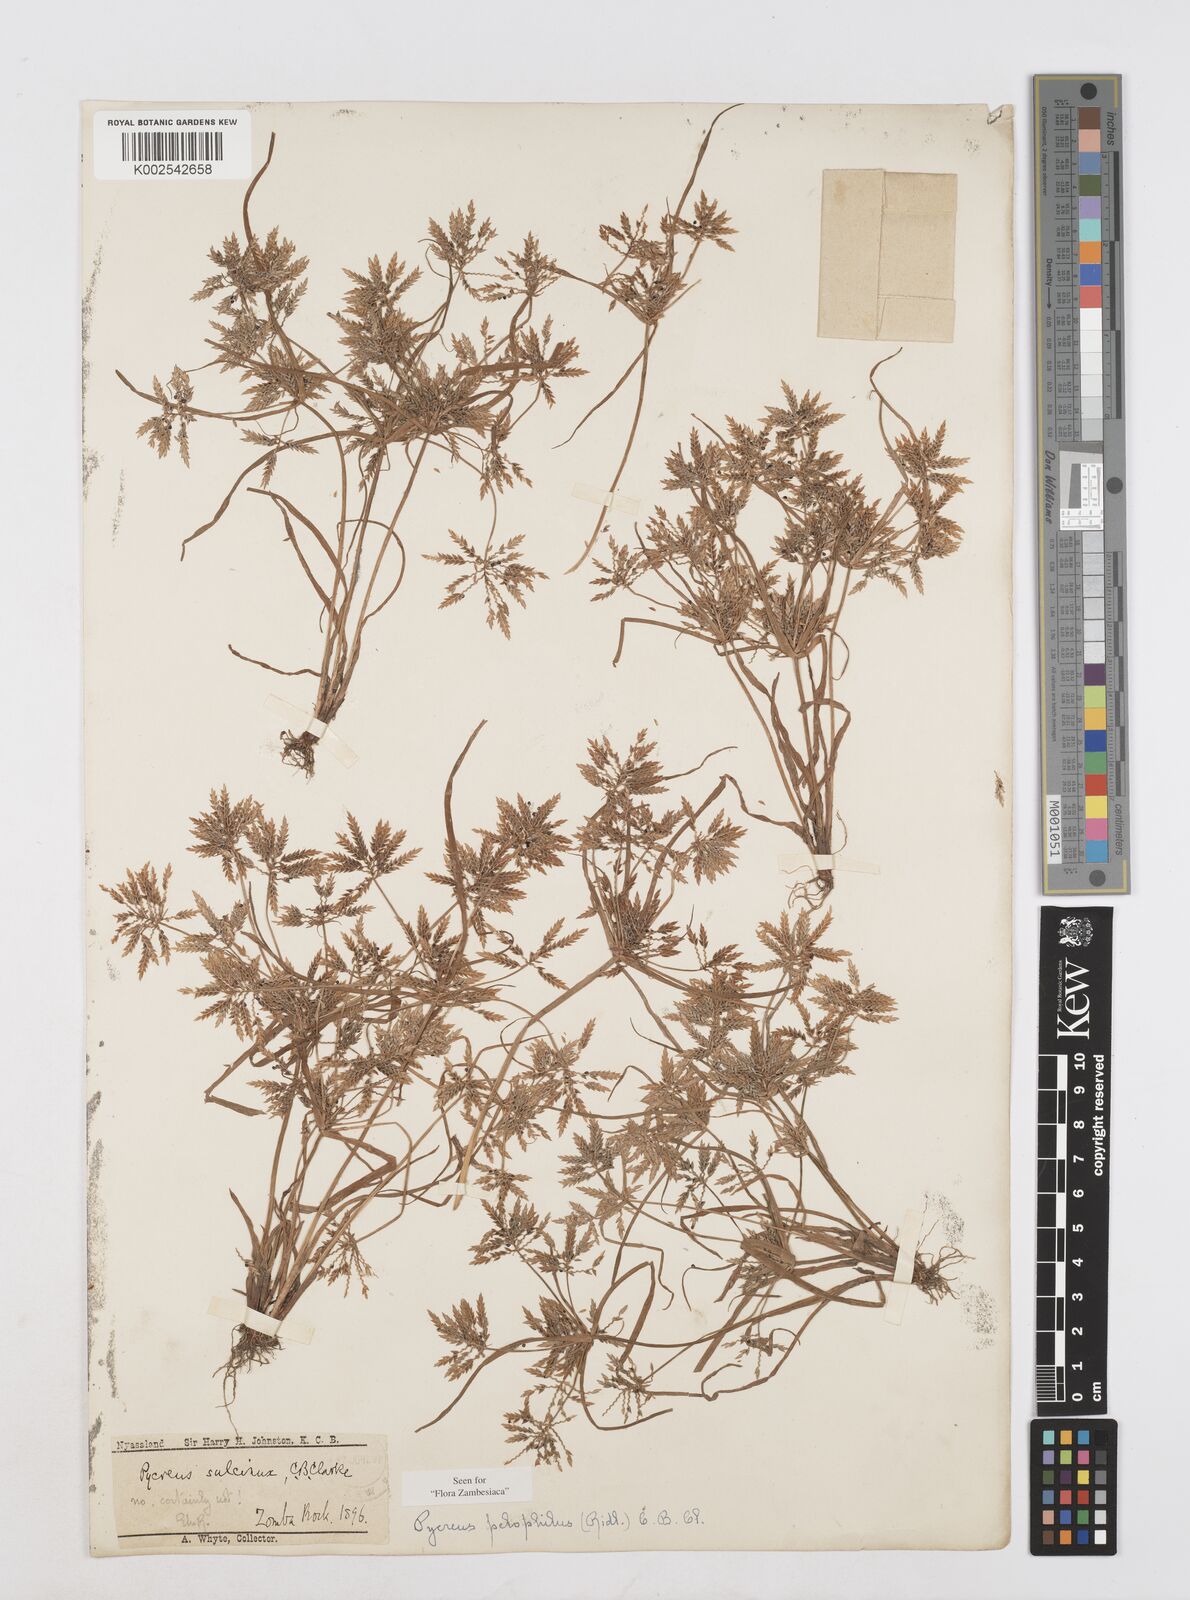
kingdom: Plantae
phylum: Tracheophyta
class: Liliopsida
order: Poales
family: Cyperaceae
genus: Cyperus
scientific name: Cyperus pelophilus
